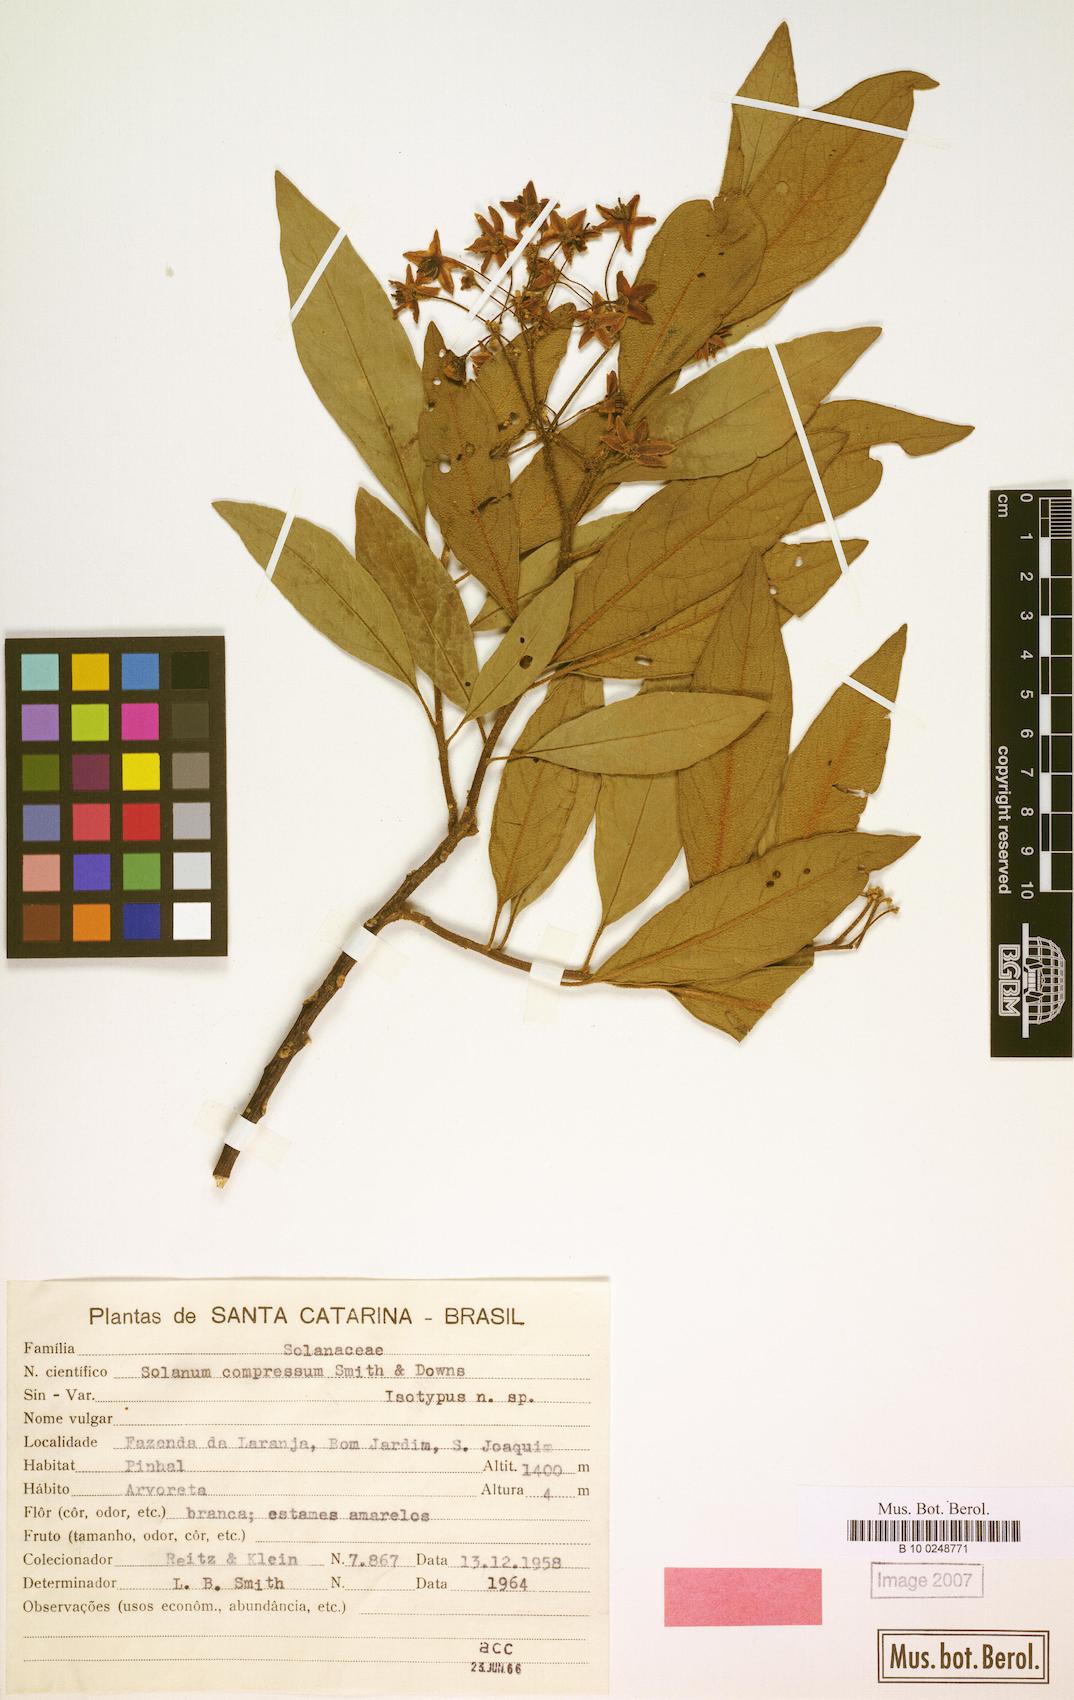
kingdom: Plantae
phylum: Tracheophyta
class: Magnoliopsida
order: Solanales
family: Solanaceae
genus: Solanum
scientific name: Solanum compressum
